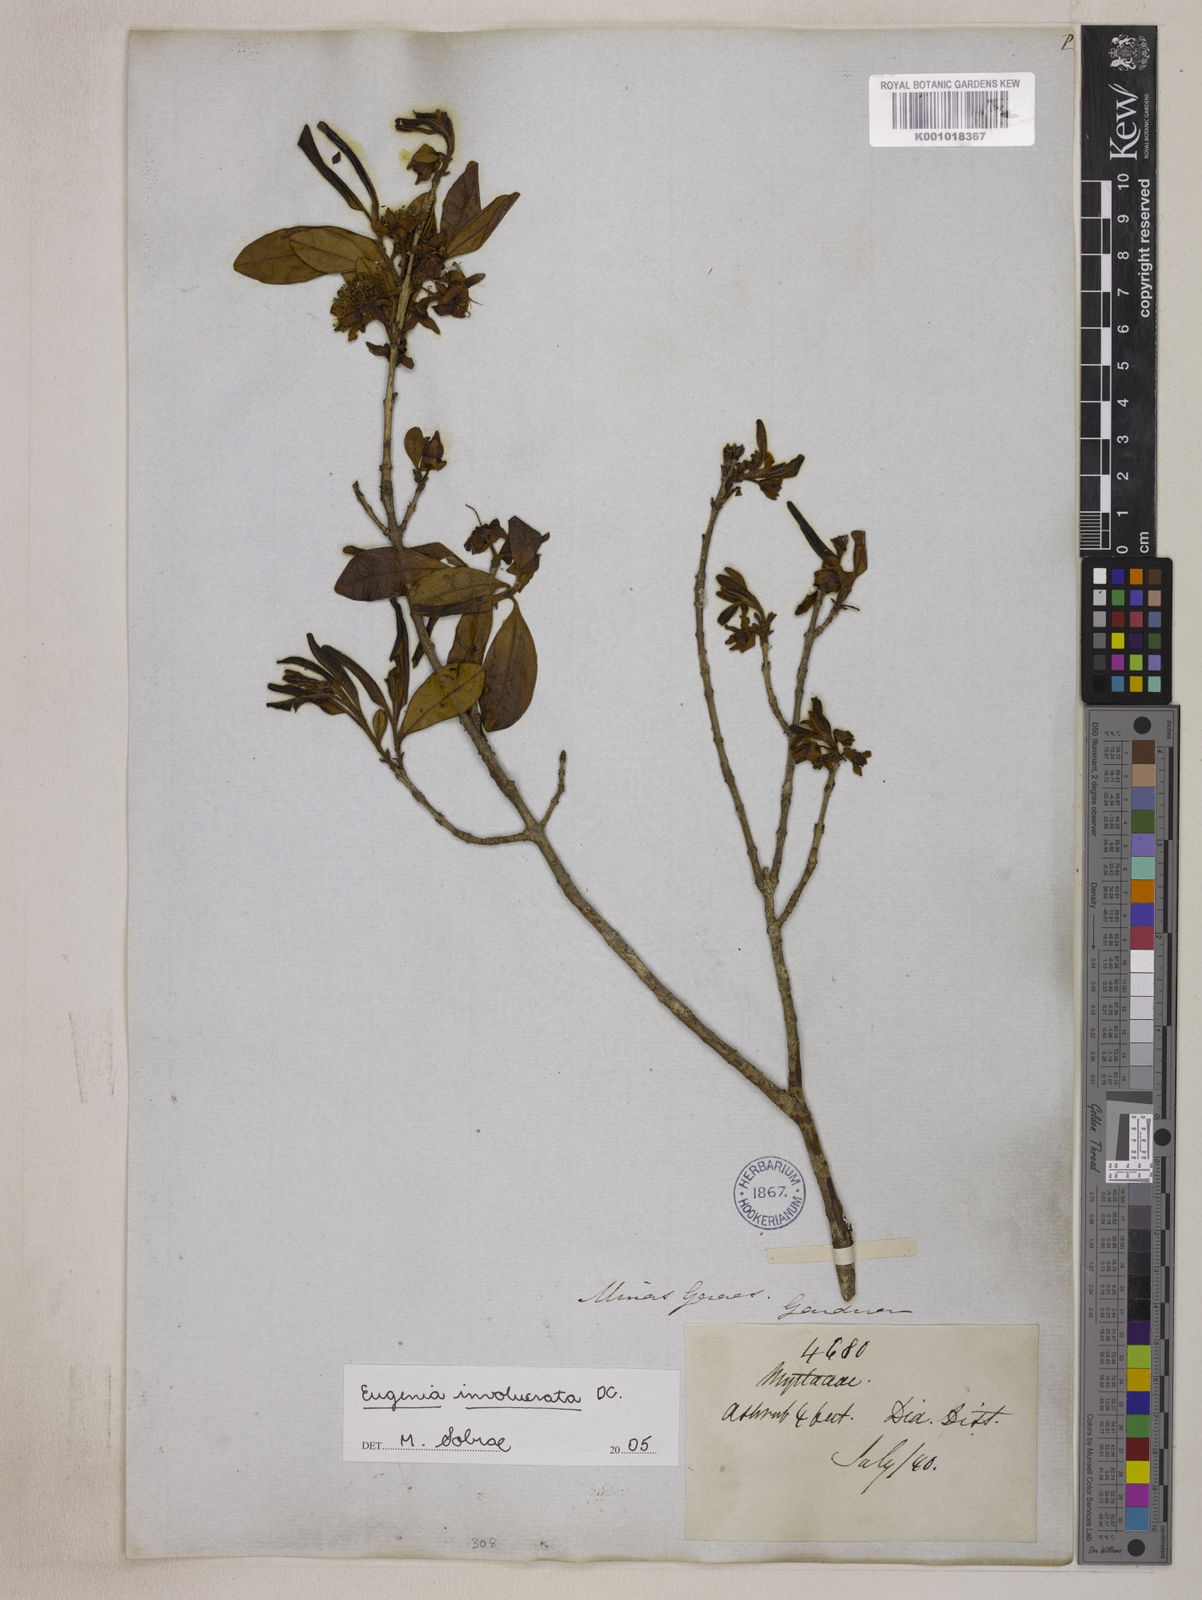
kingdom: Plantae
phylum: Tracheophyta
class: Magnoliopsida
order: Myrtales
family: Myrtaceae
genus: Eugenia
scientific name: Eugenia involucrata
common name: Cherry-of-the-rio grande
